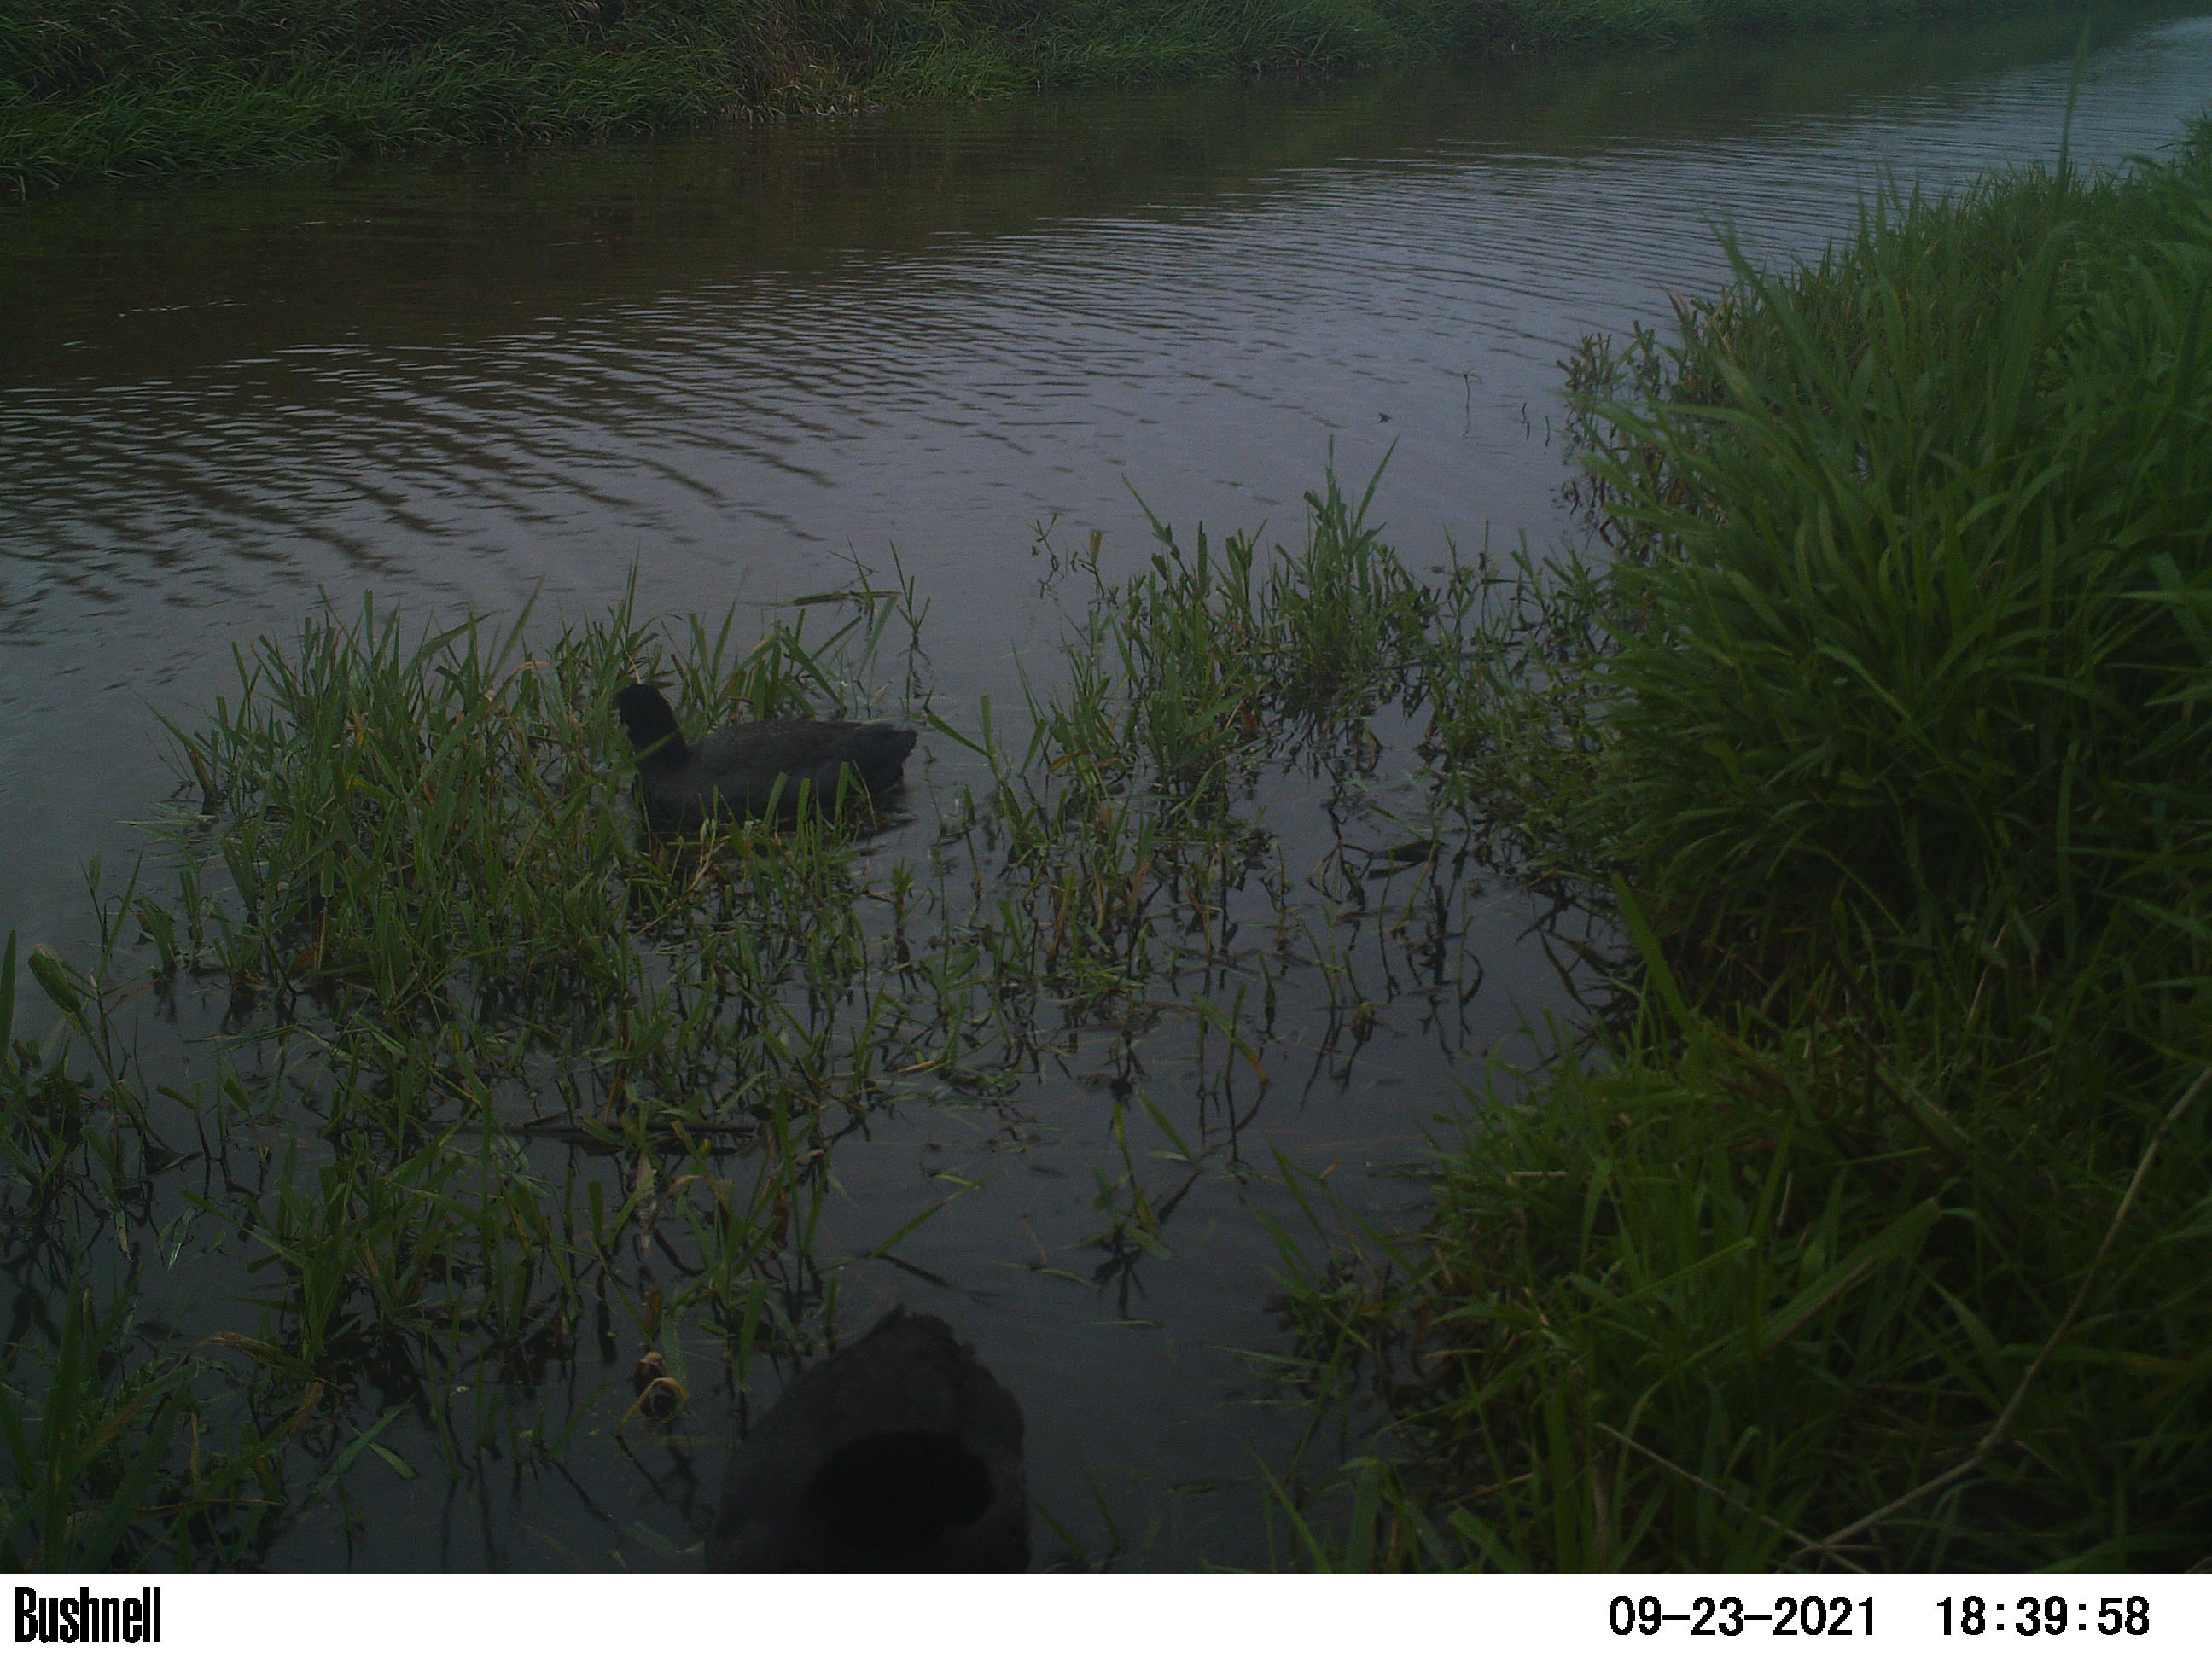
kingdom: Animalia
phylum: Chordata
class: Aves
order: Gruiformes
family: Rallidae
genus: Fulica
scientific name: Fulica atra
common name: Eurasian coot
